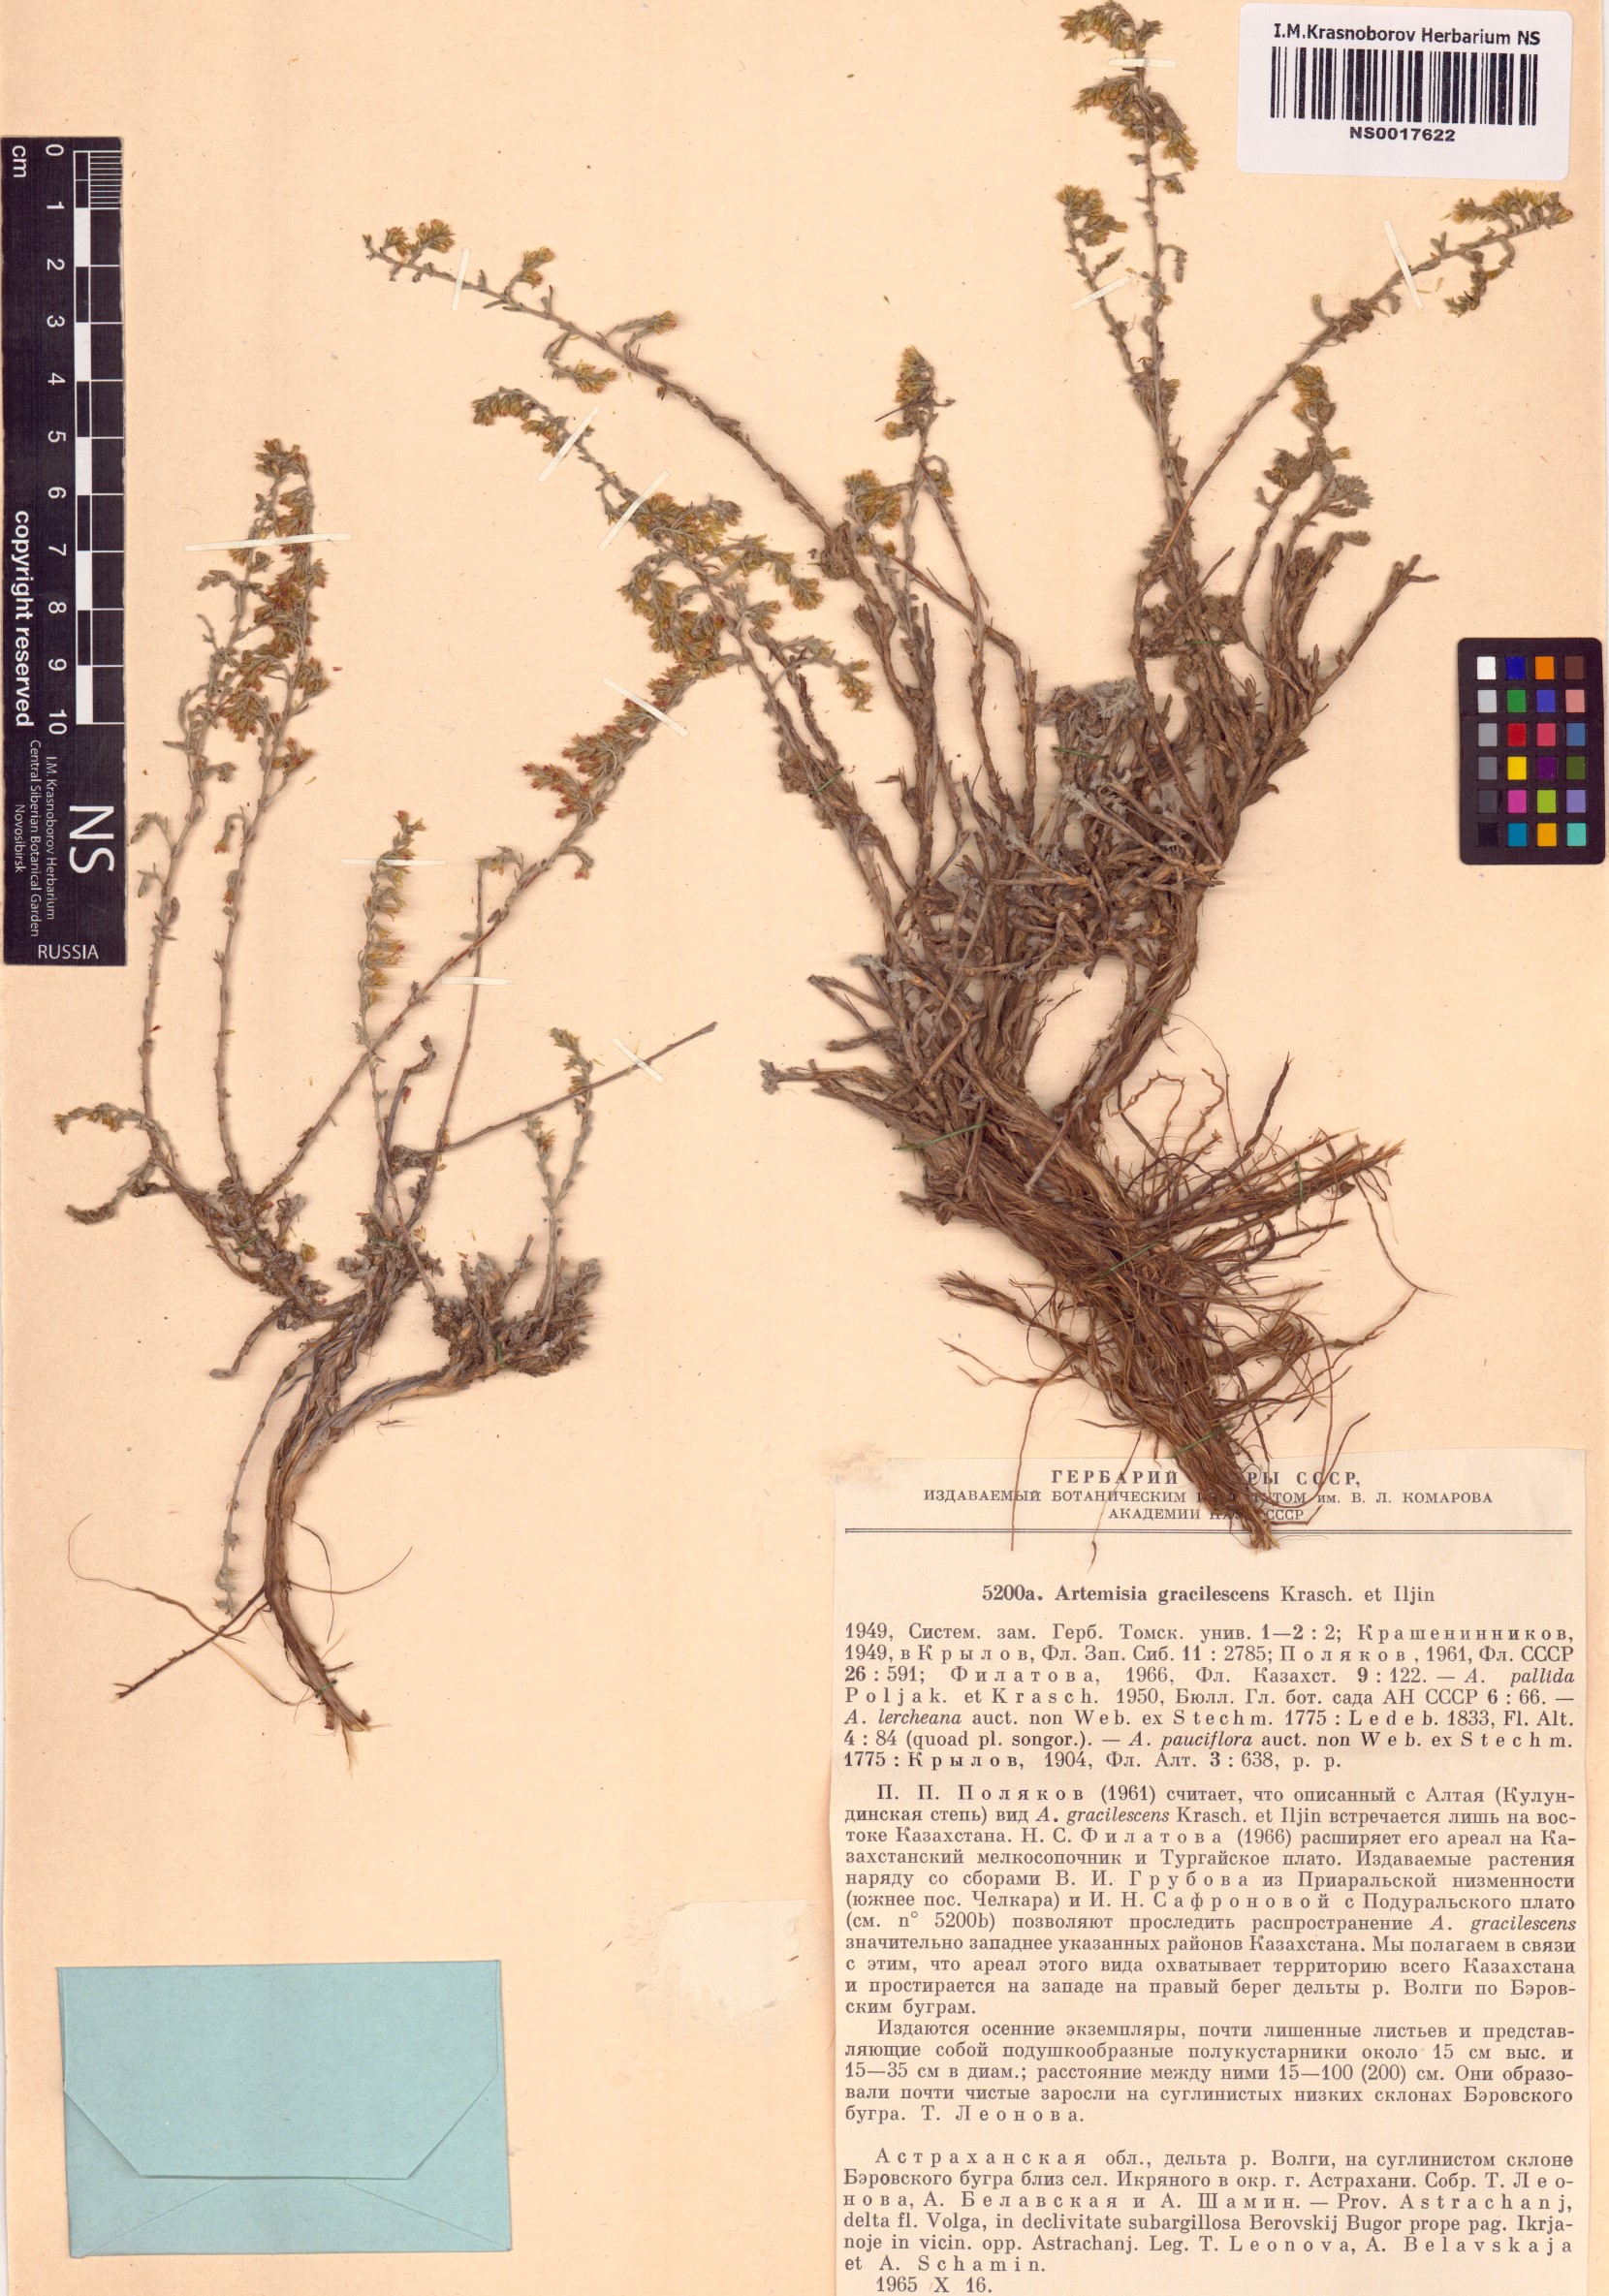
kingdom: Plantae
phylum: Tracheophyta
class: Magnoliopsida
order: Asterales
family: Asteraceae
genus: Artemisia
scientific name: Artemisia gracilescens
